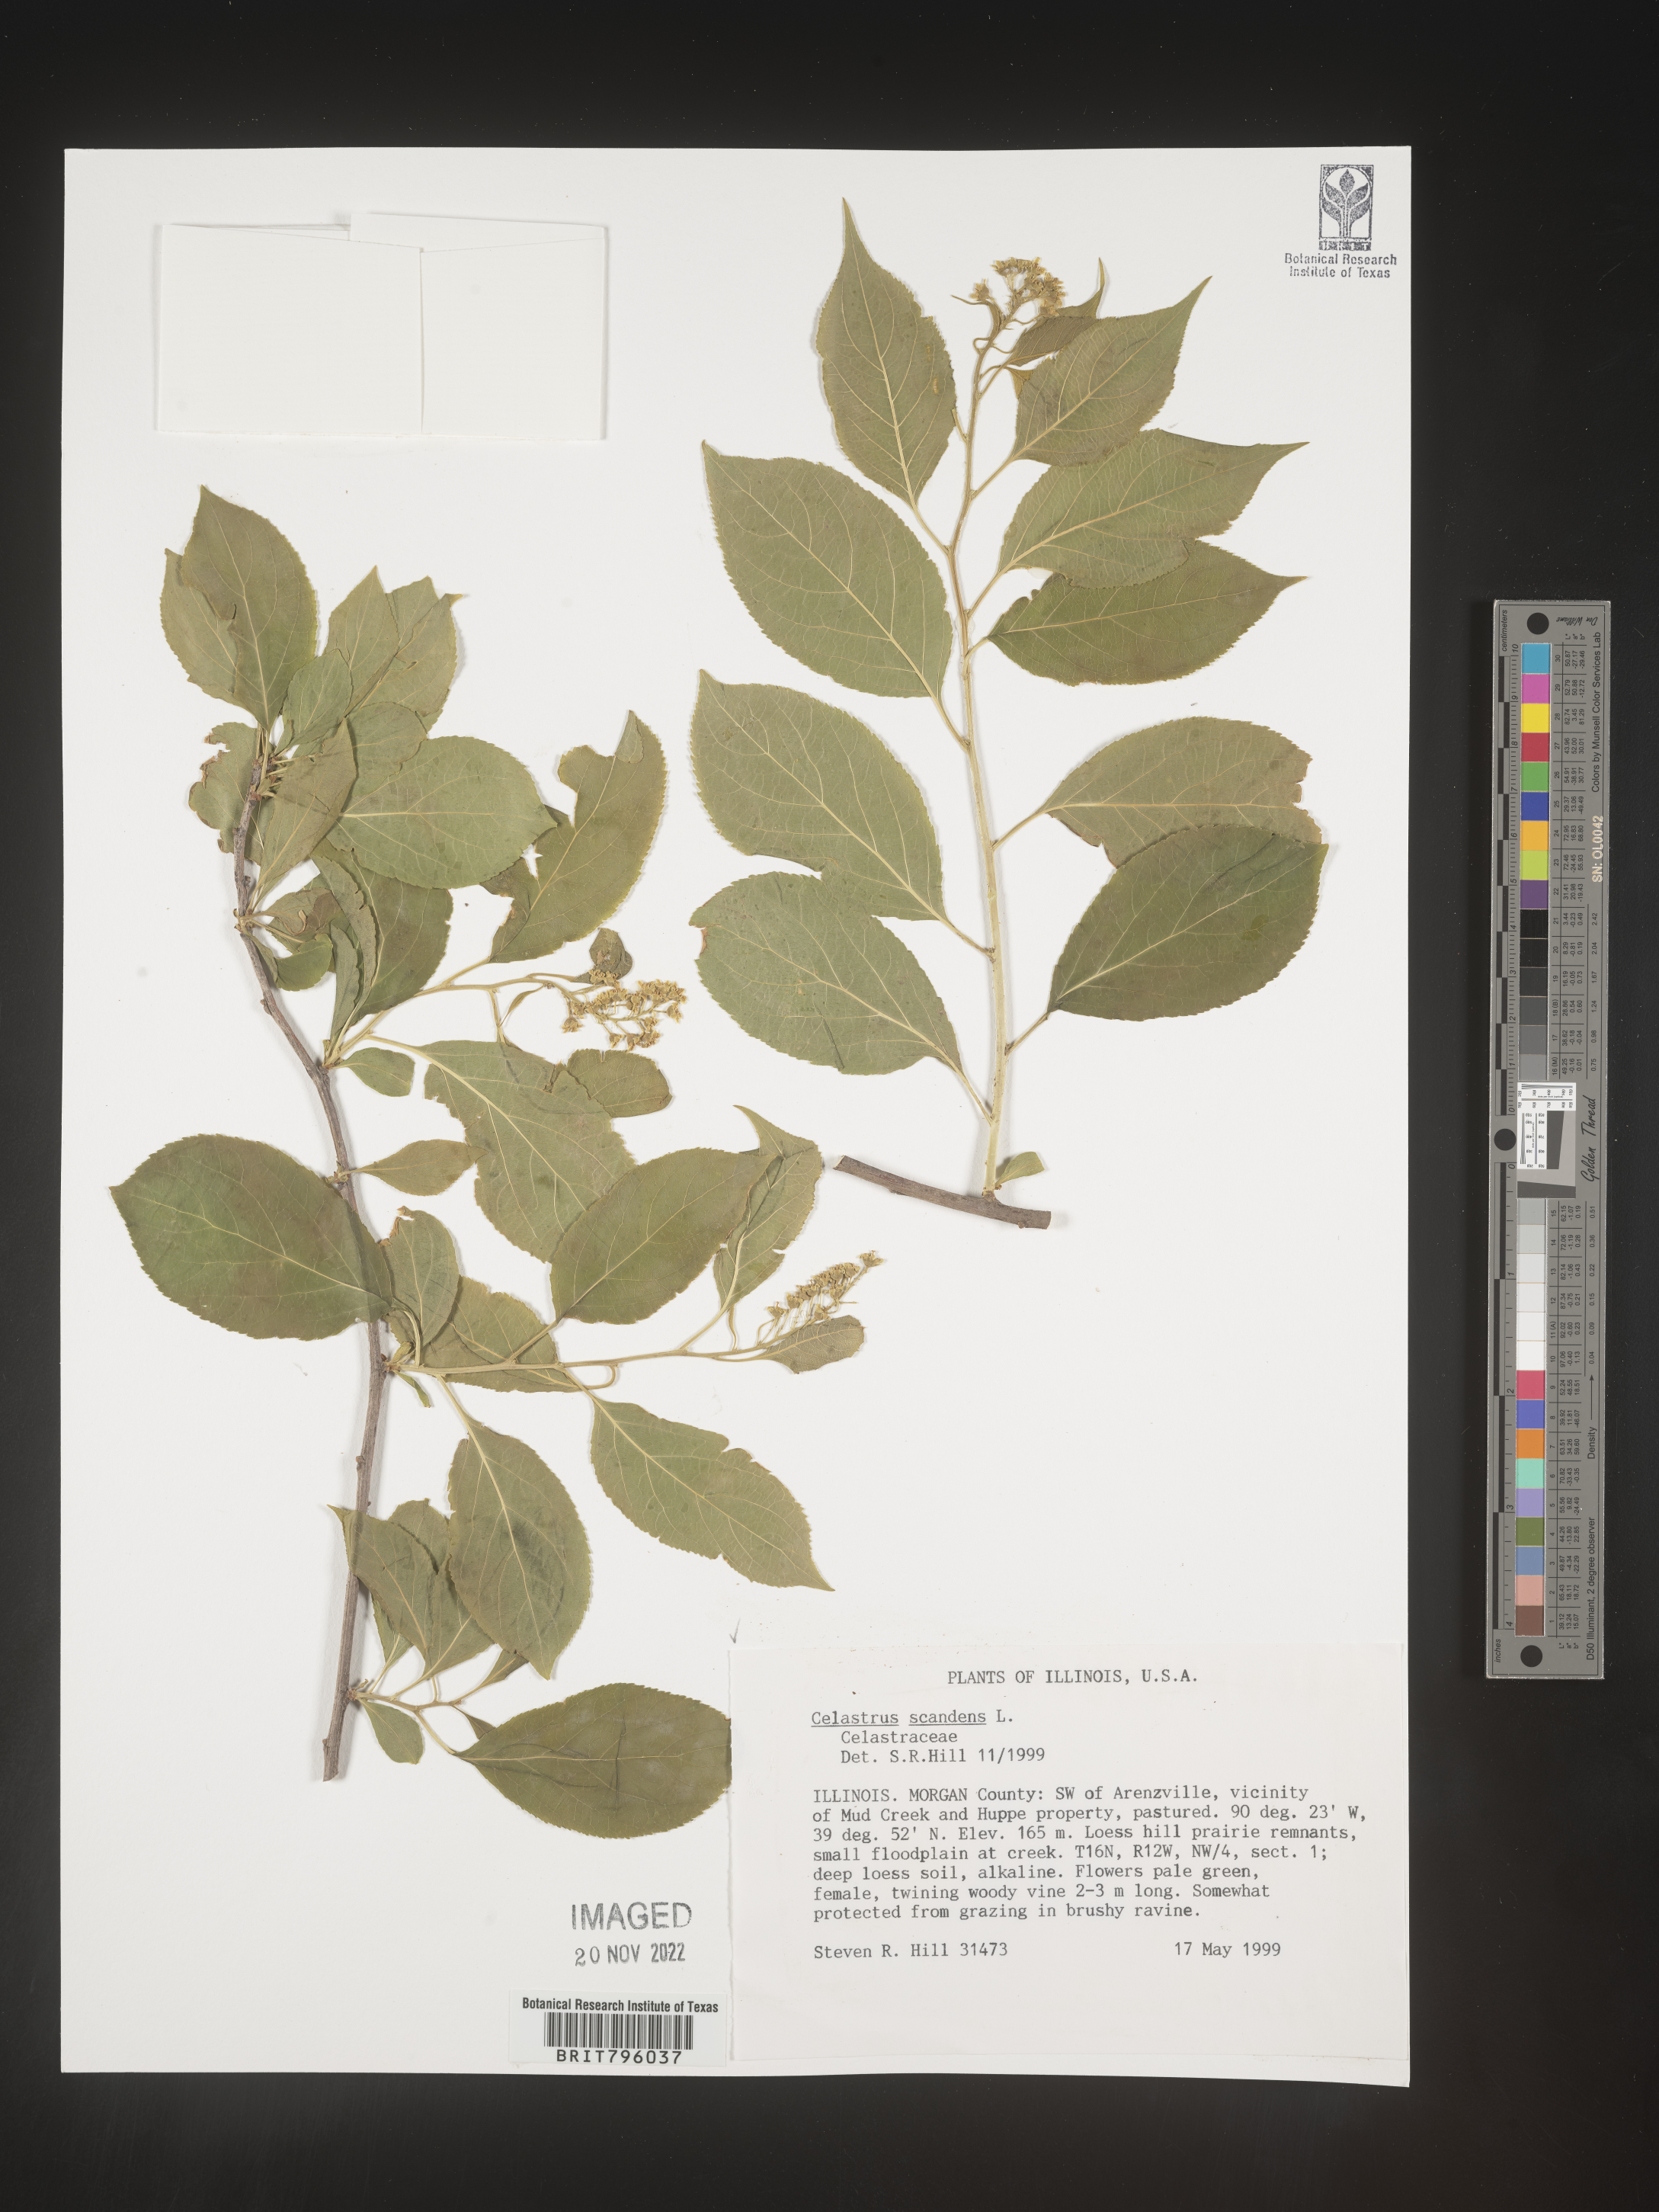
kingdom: Plantae
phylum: Tracheophyta
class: Magnoliopsida
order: Celastrales
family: Celastraceae
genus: Celastrus
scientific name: Celastrus scandens
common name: American bittersweet
